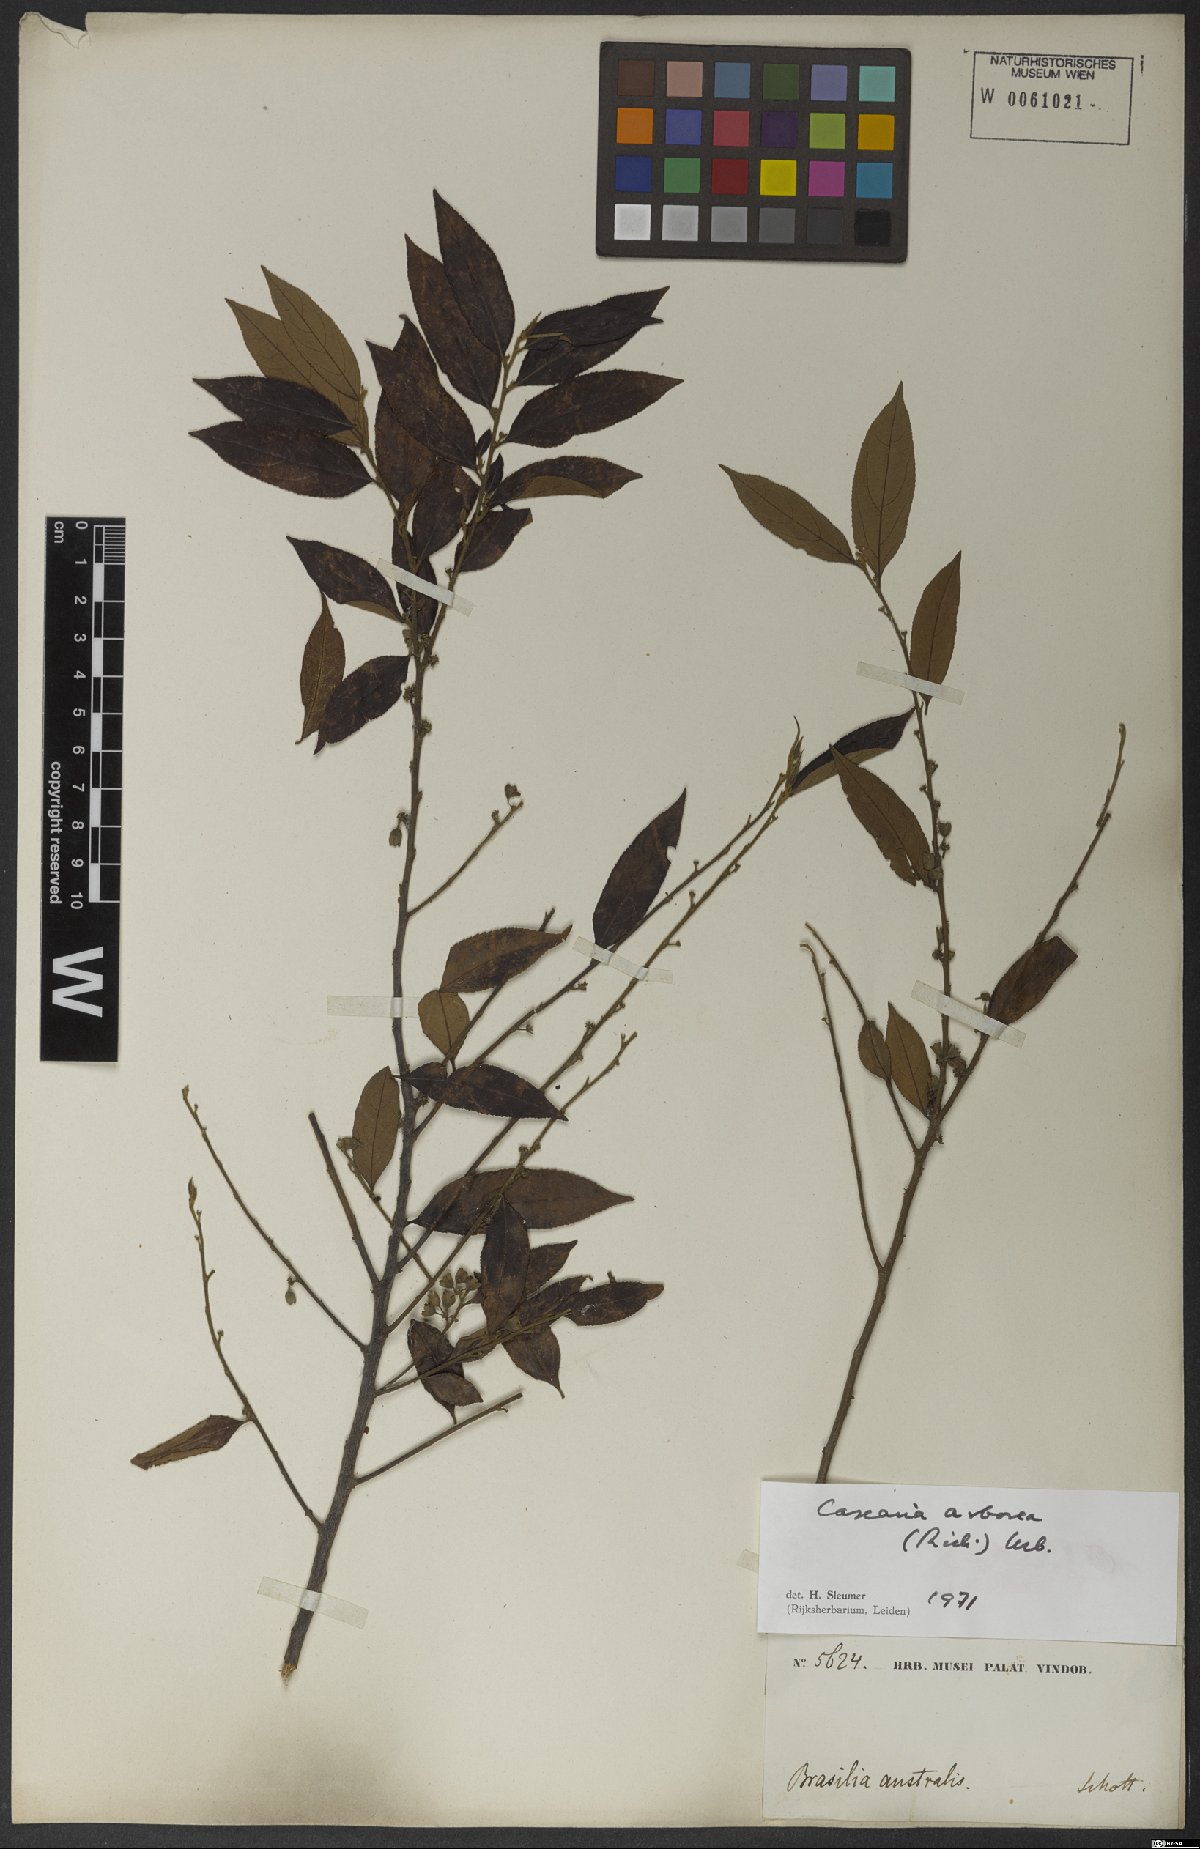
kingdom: Plantae
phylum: Tracheophyta
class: Magnoliopsida
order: Malpighiales
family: Salicaceae
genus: Casearia
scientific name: Casearia arborea
